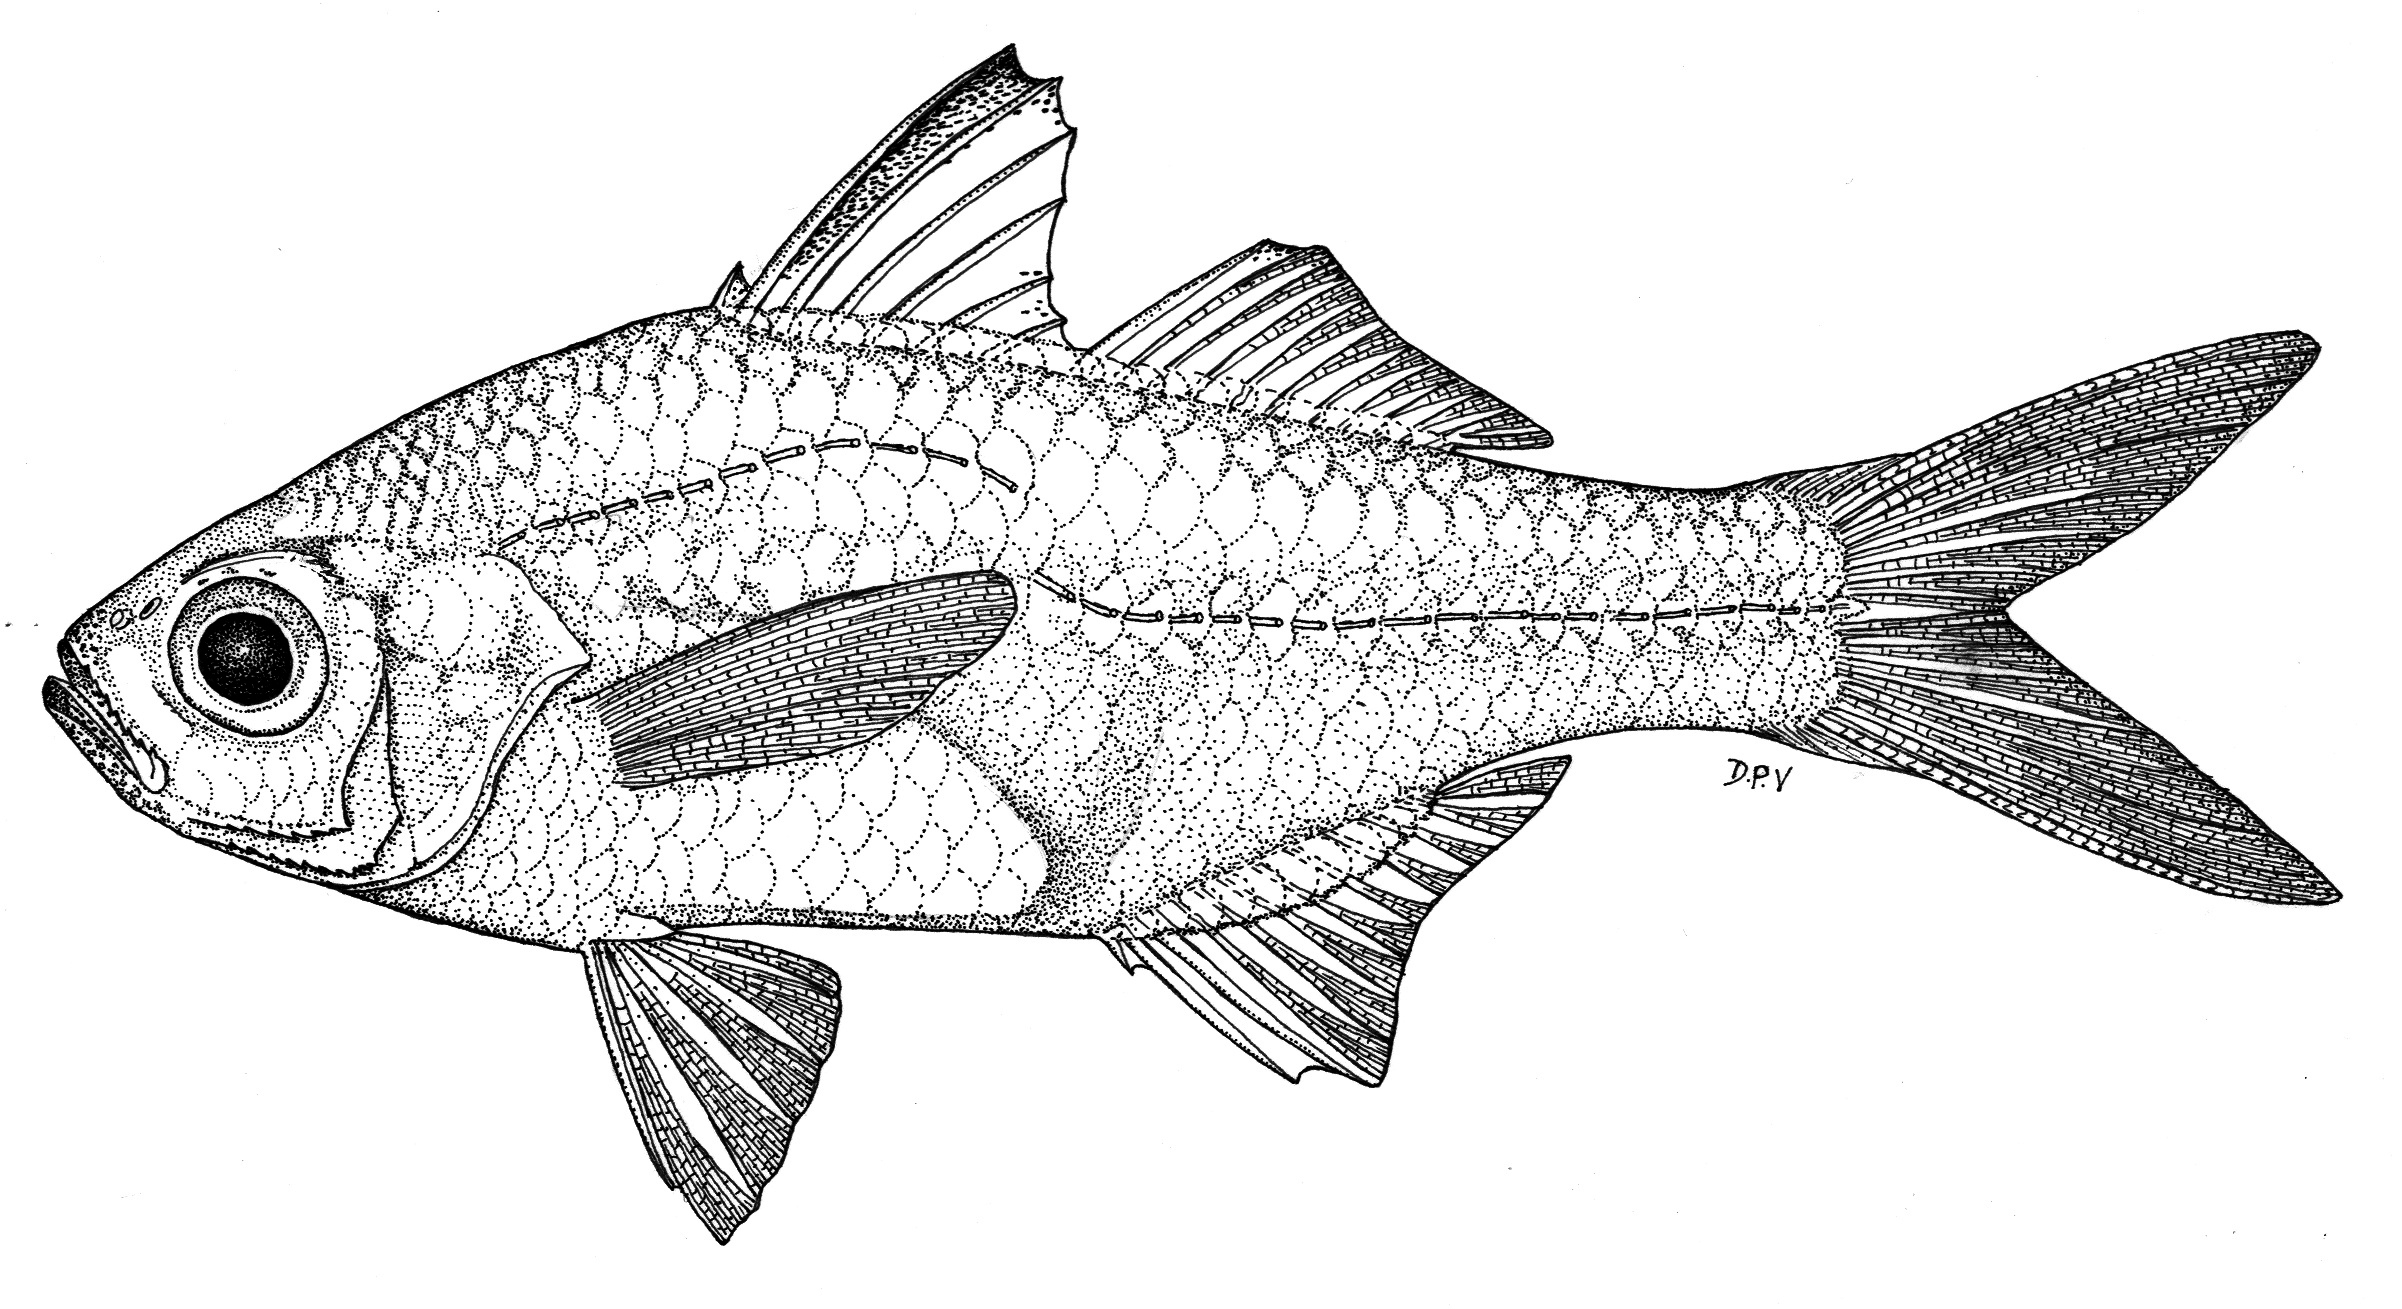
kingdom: Animalia
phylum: Chordata
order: Perciformes
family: Ambassidae
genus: Ambassis
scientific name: Ambassis dussumieri
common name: Malabar glassy perchlet
